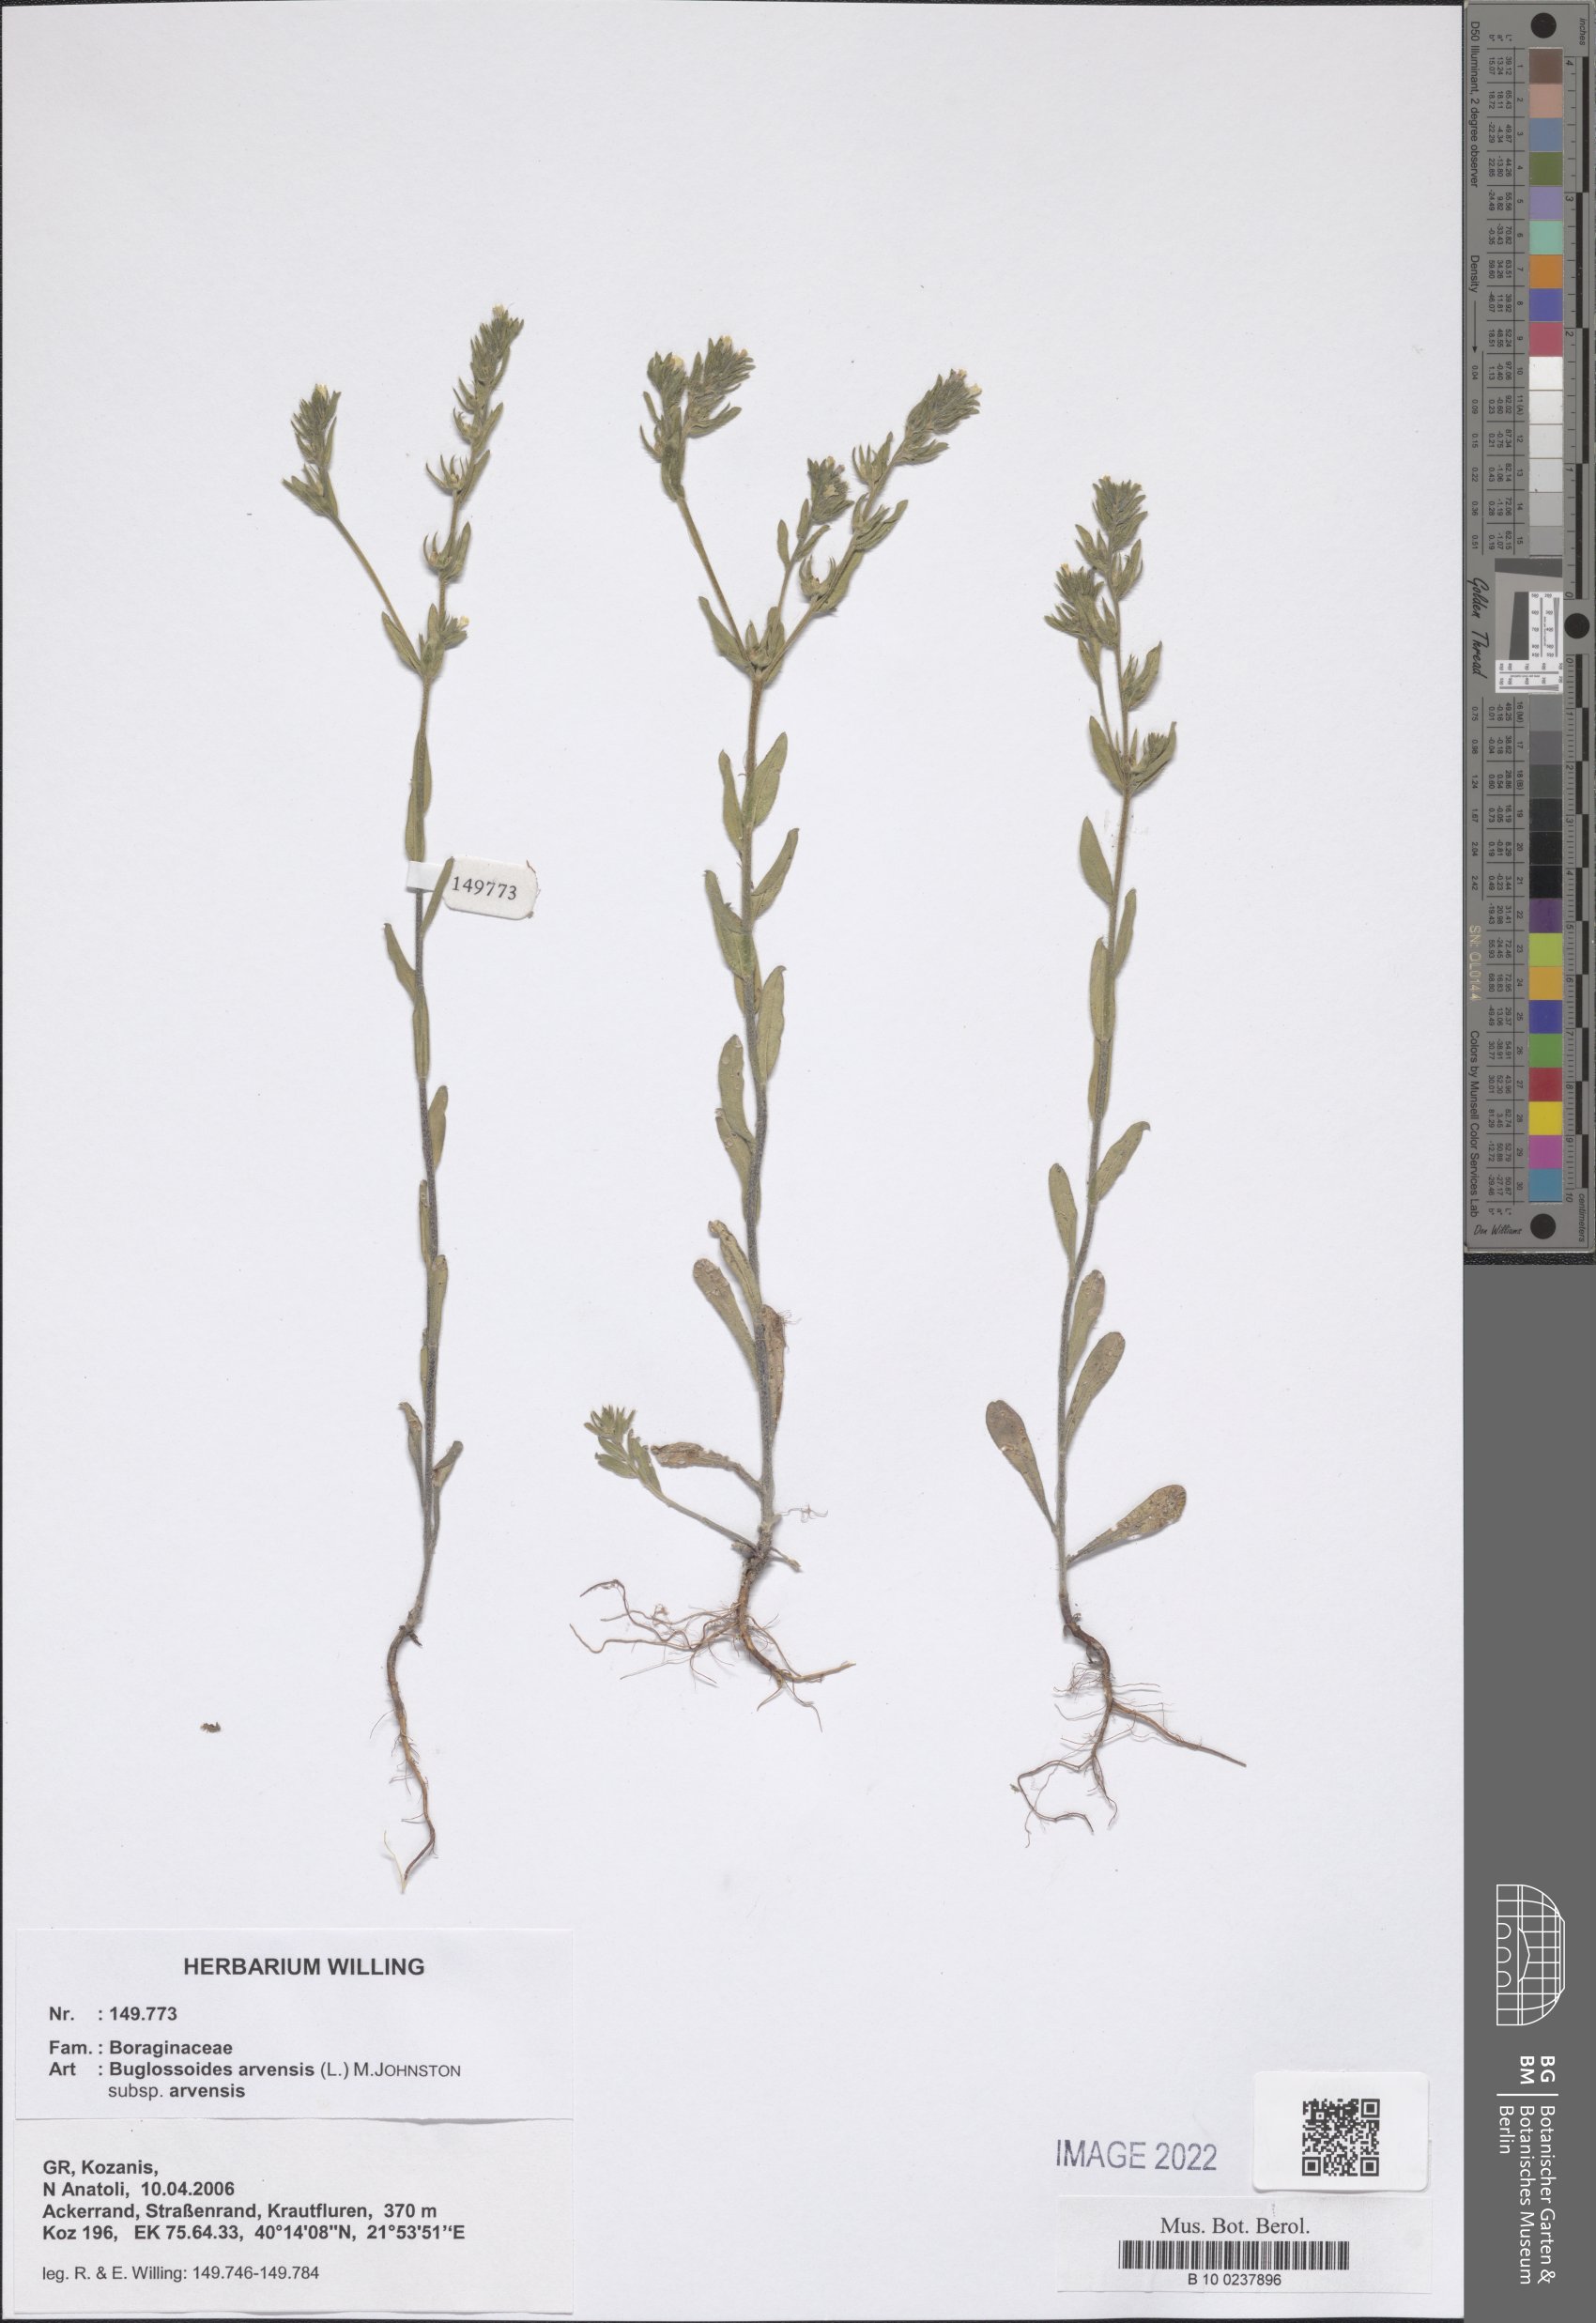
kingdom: Plantae
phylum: Tracheophyta
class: Magnoliopsida
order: Boraginales
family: Boraginaceae
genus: Buglossoides
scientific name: Buglossoides arvensis
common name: Corn gromwell
